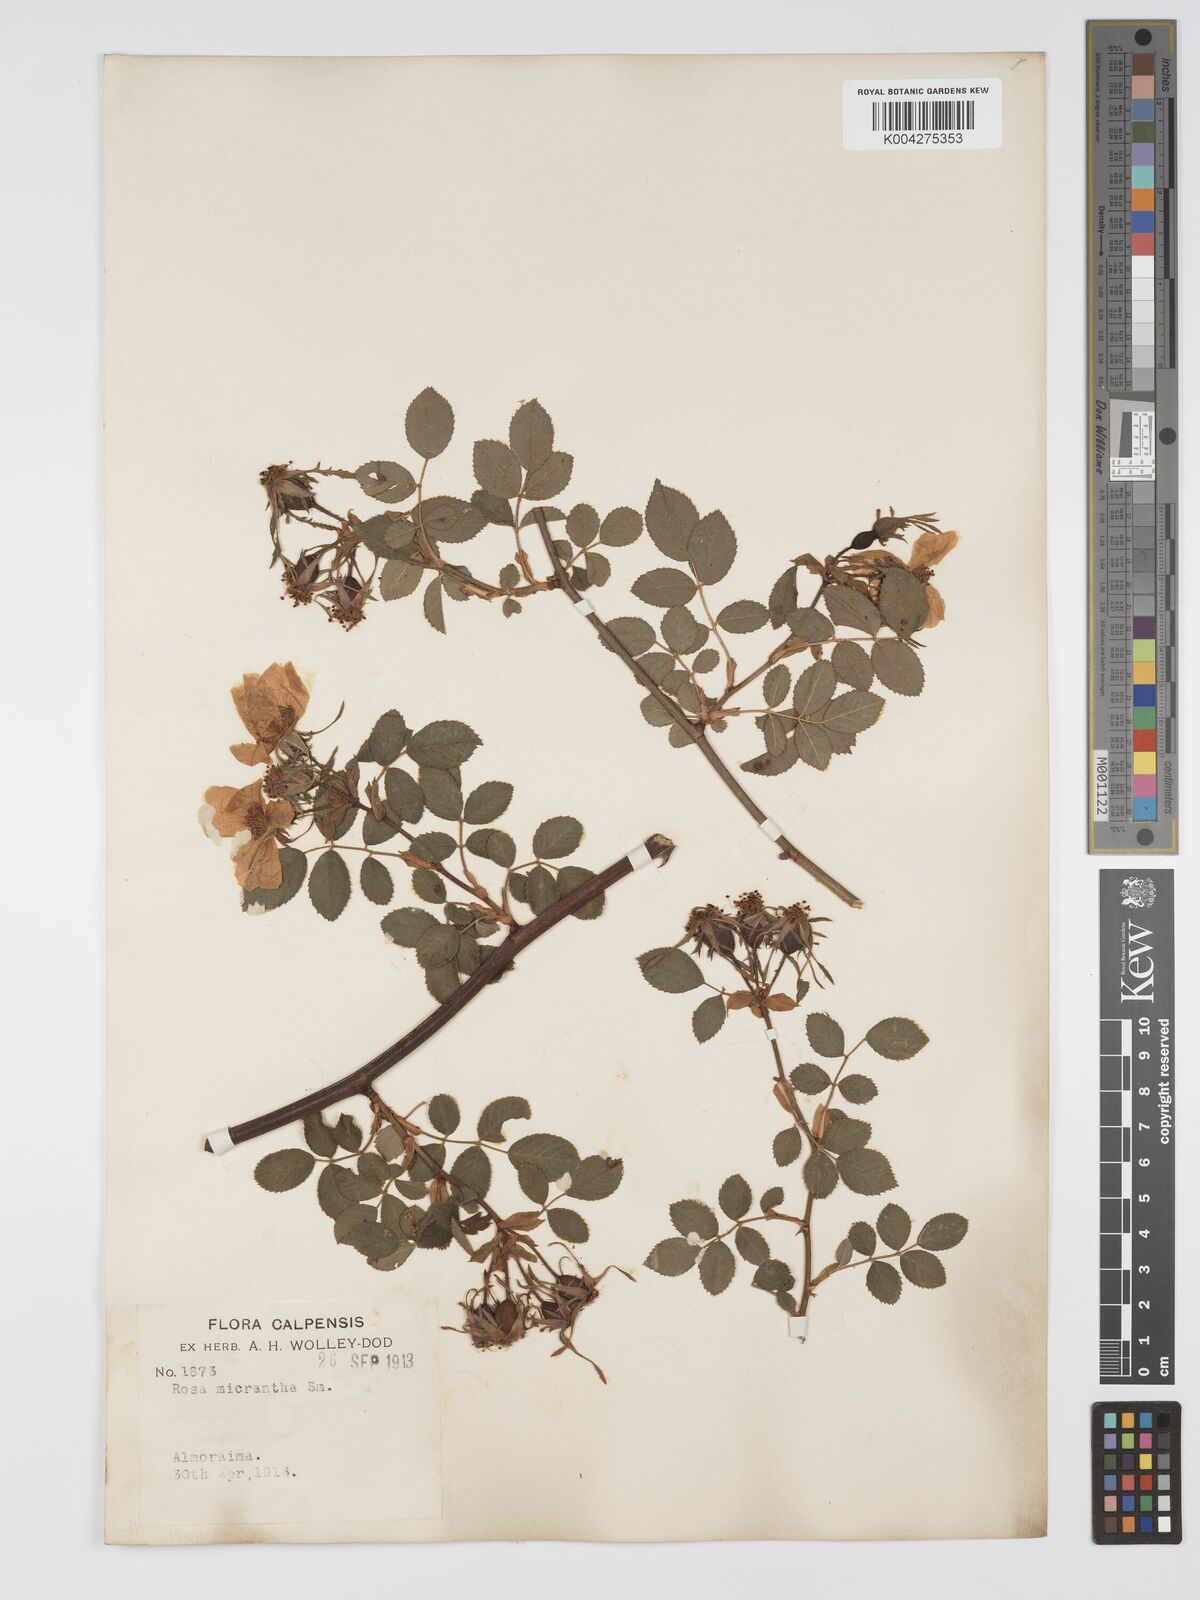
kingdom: Plantae
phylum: Tracheophyta
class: Magnoliopsida
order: Rosales
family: Rosaceae
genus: Rosa
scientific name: Rosa
